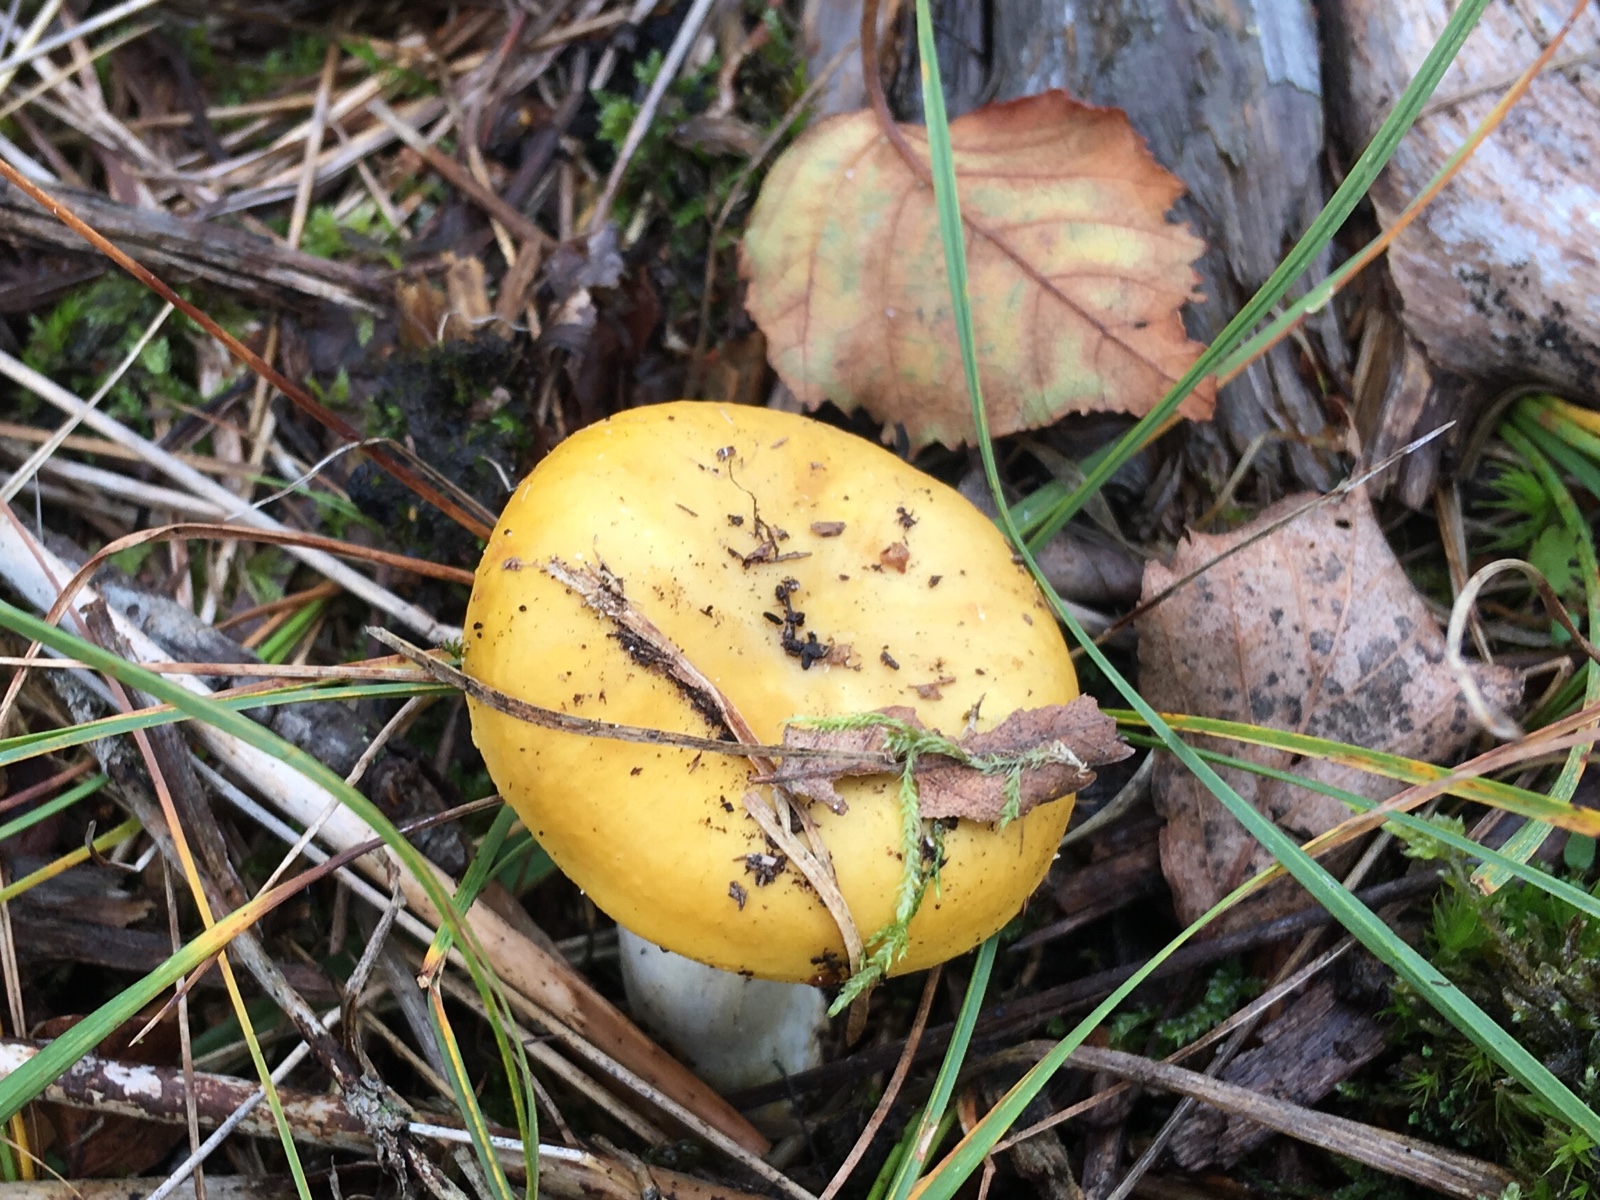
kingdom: Fungi
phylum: Basidiomycota
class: Agaricomycetes
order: Russulales
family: Russulaceae
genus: Russula
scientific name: Russula claroflava
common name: birke-skørhat
